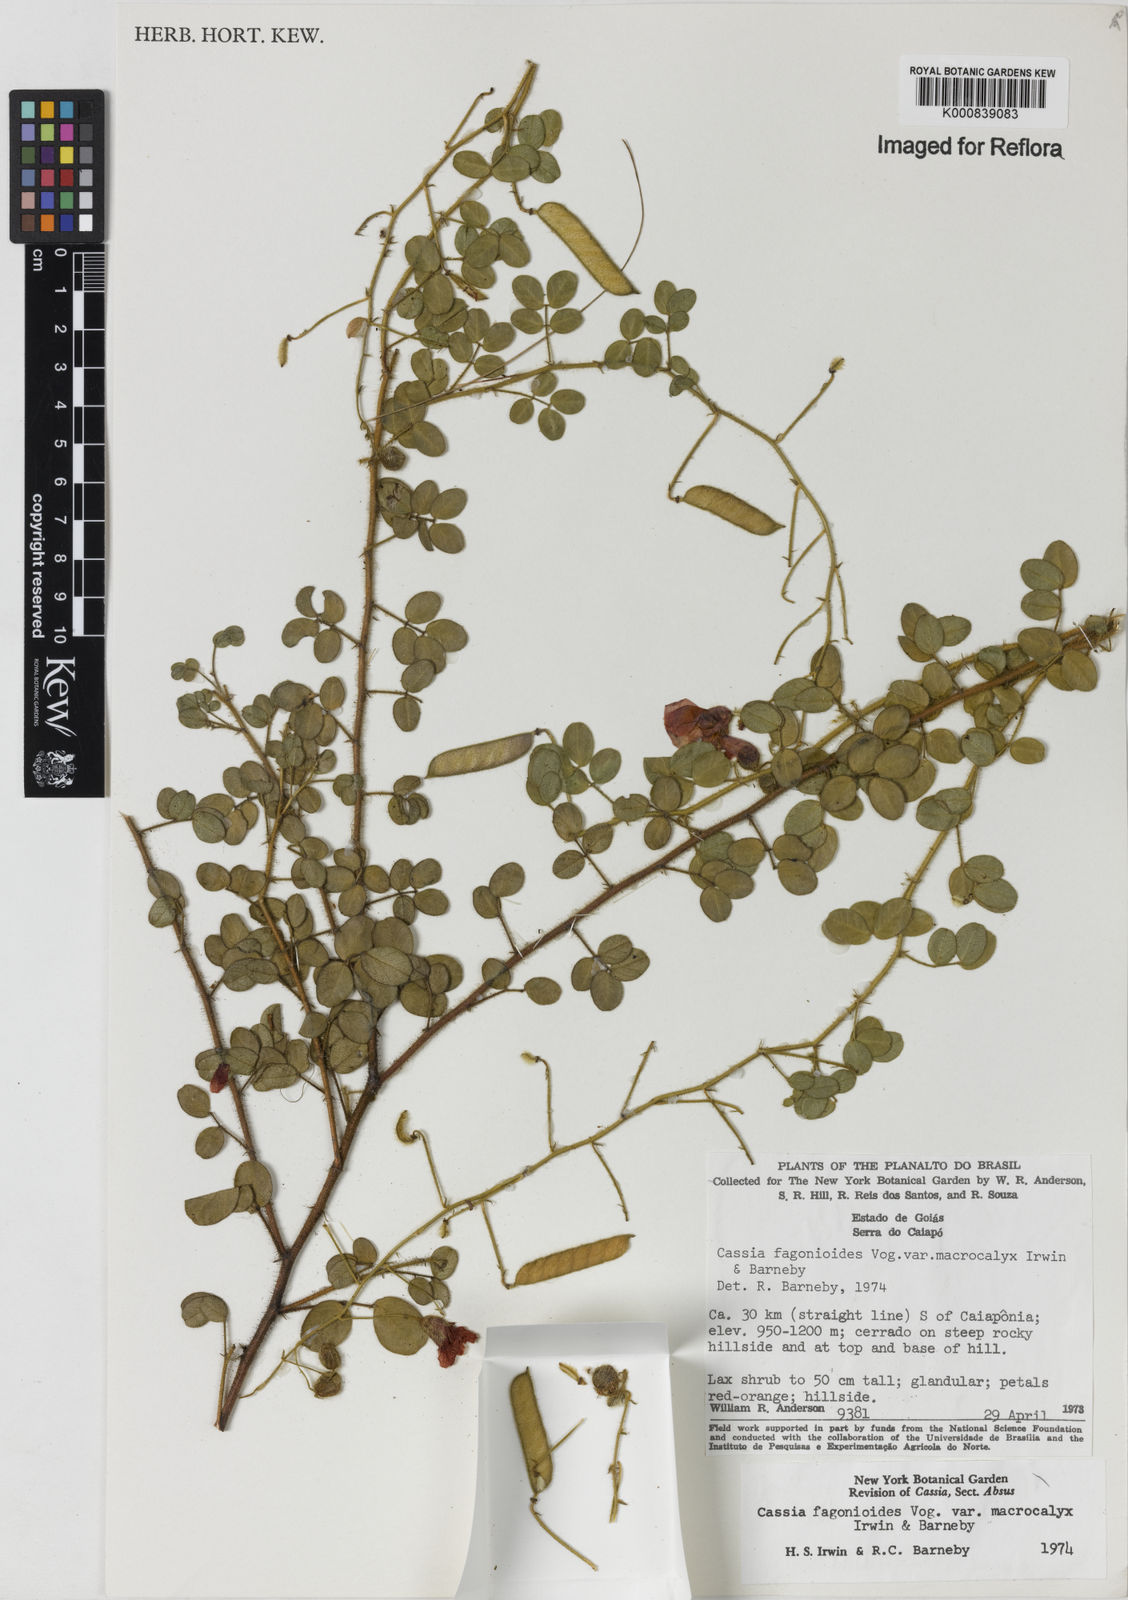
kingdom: Plantae
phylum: Tracheophyta
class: Magnoliopsida
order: Fabales
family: Fabaceae
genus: Chamaecrista
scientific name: Chamaecrista fagonioides
